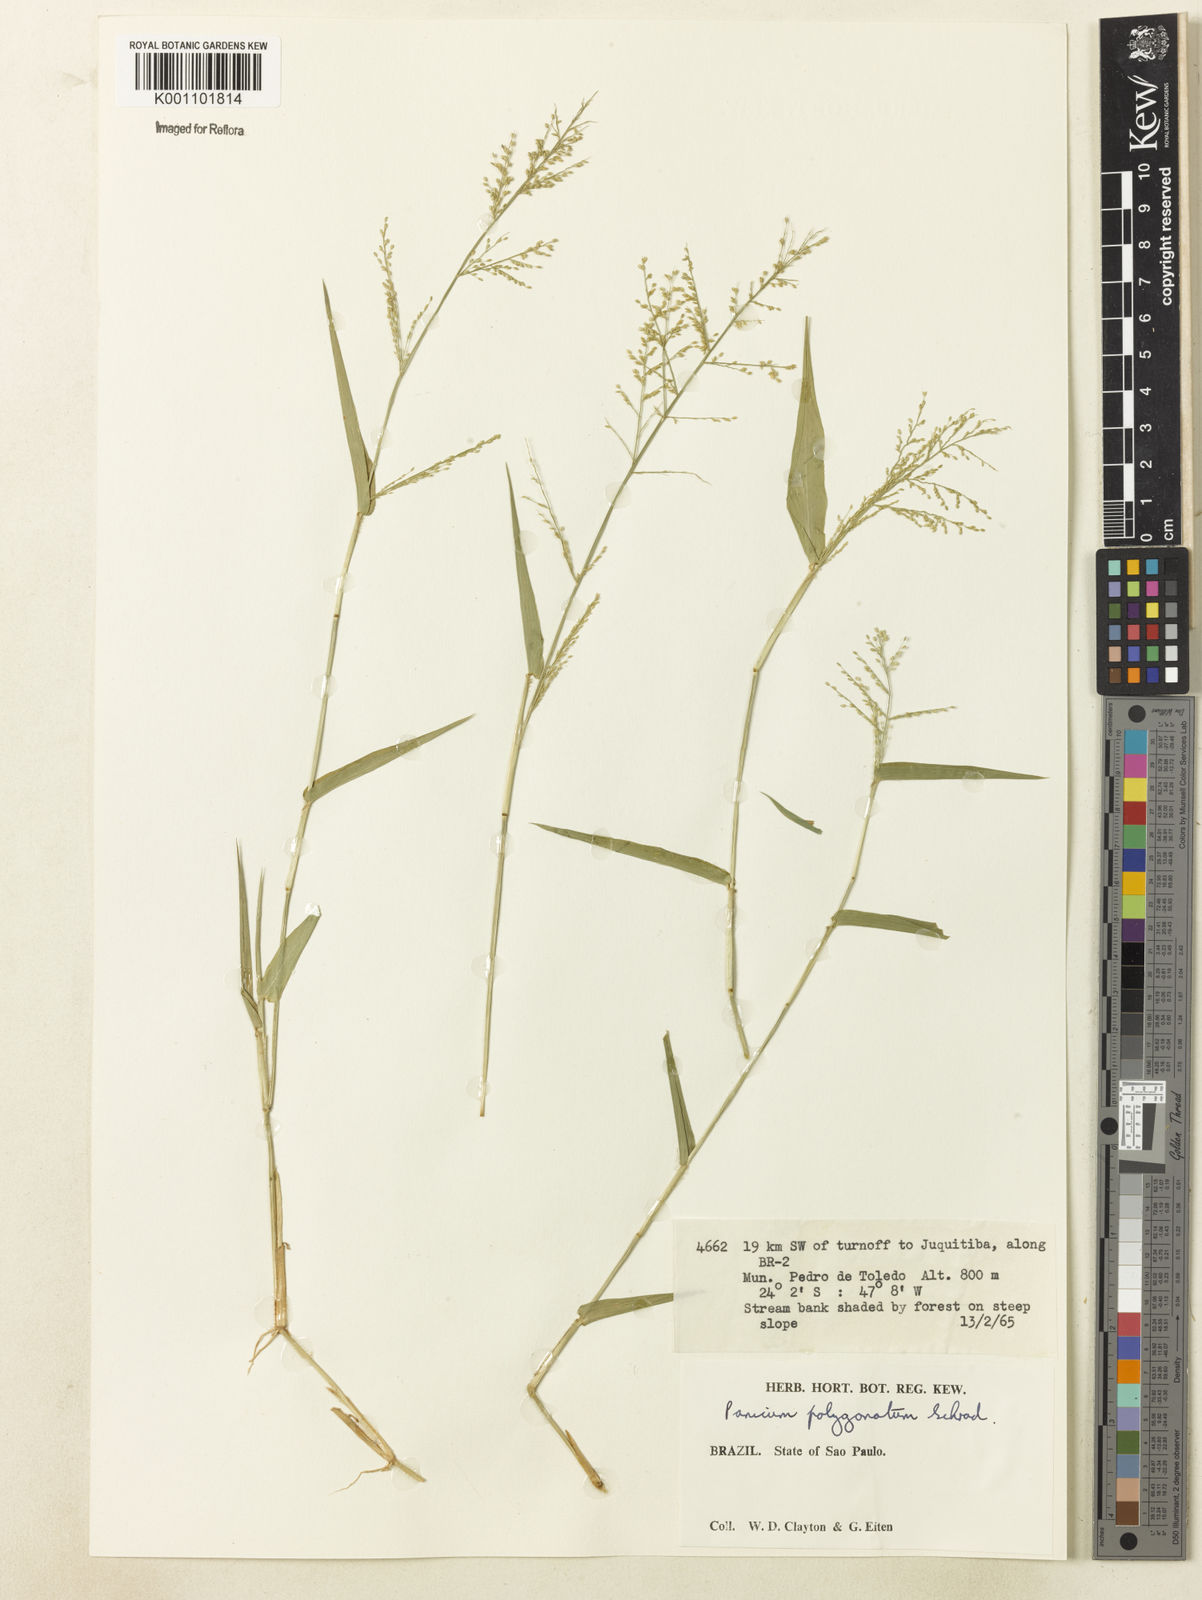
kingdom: Plantae
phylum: Tracheophyta
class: Liliopsida
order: Poales
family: Poaceae
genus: Rugoloa
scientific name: Rugoloa polygonata
